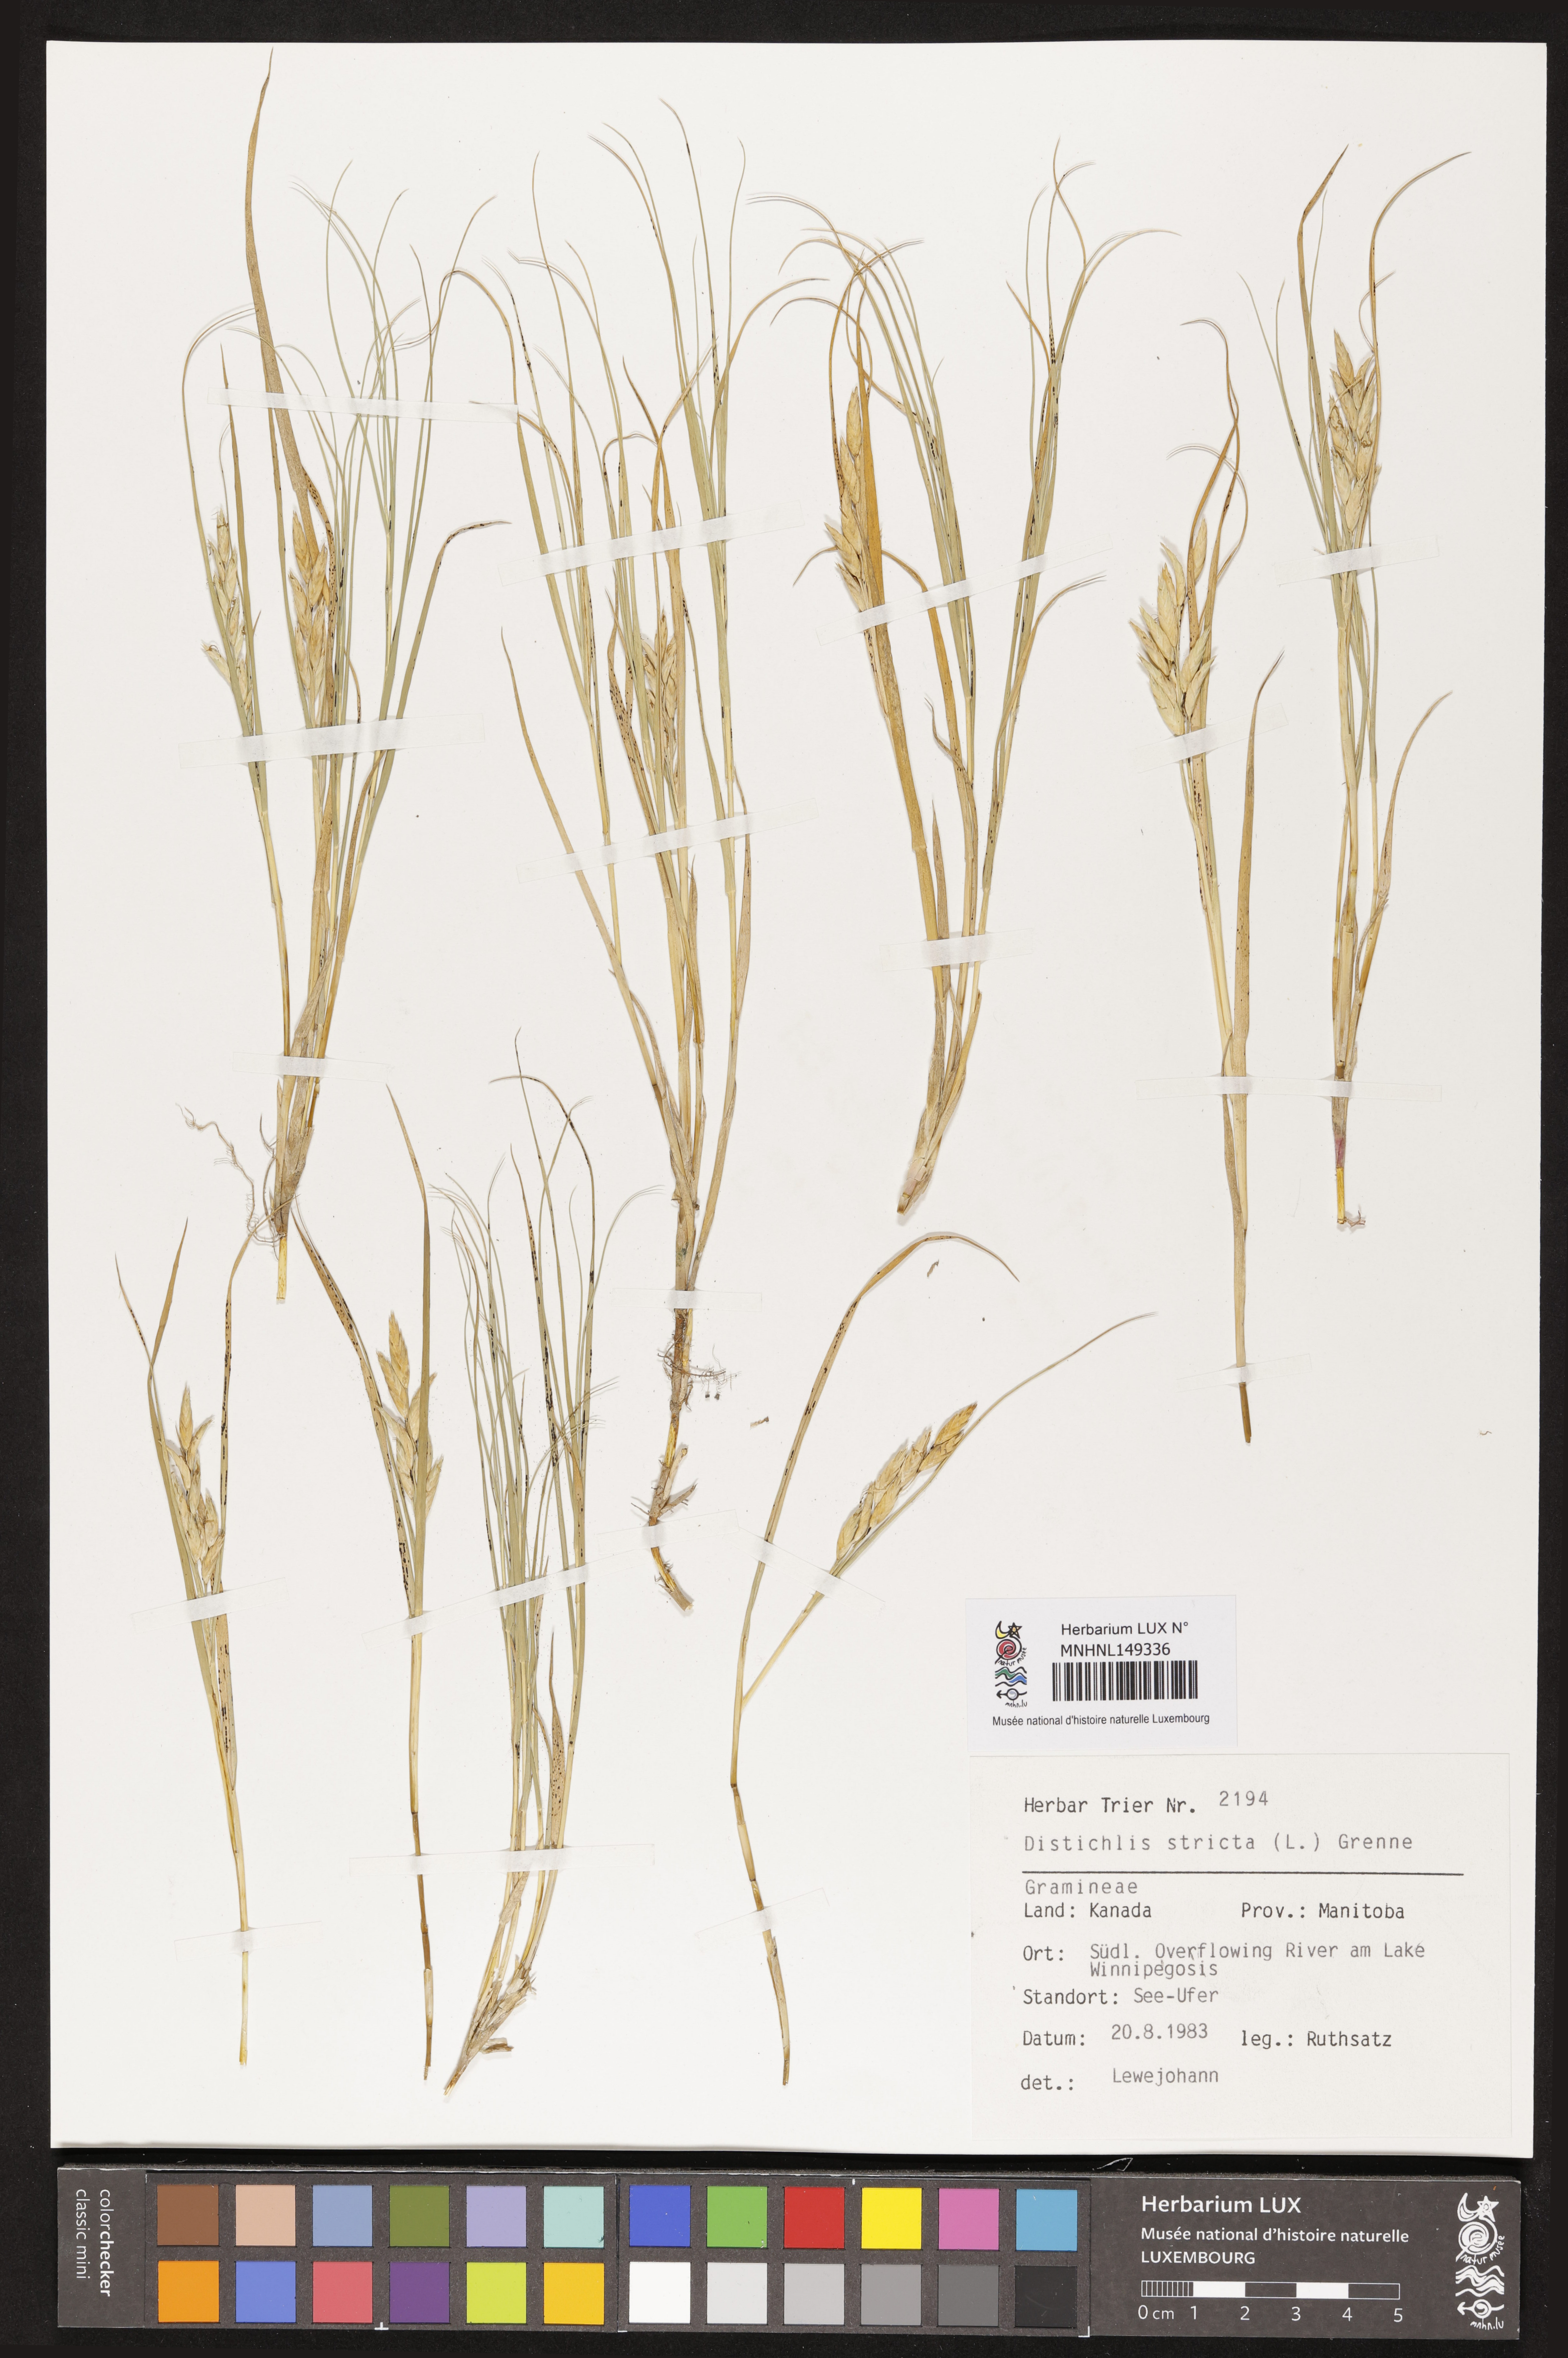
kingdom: Plantae
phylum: Tracheophyta
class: Liliopsida
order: Poales
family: Poaceae
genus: Distichlis
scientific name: Distichlis spicata
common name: Saltgrass
